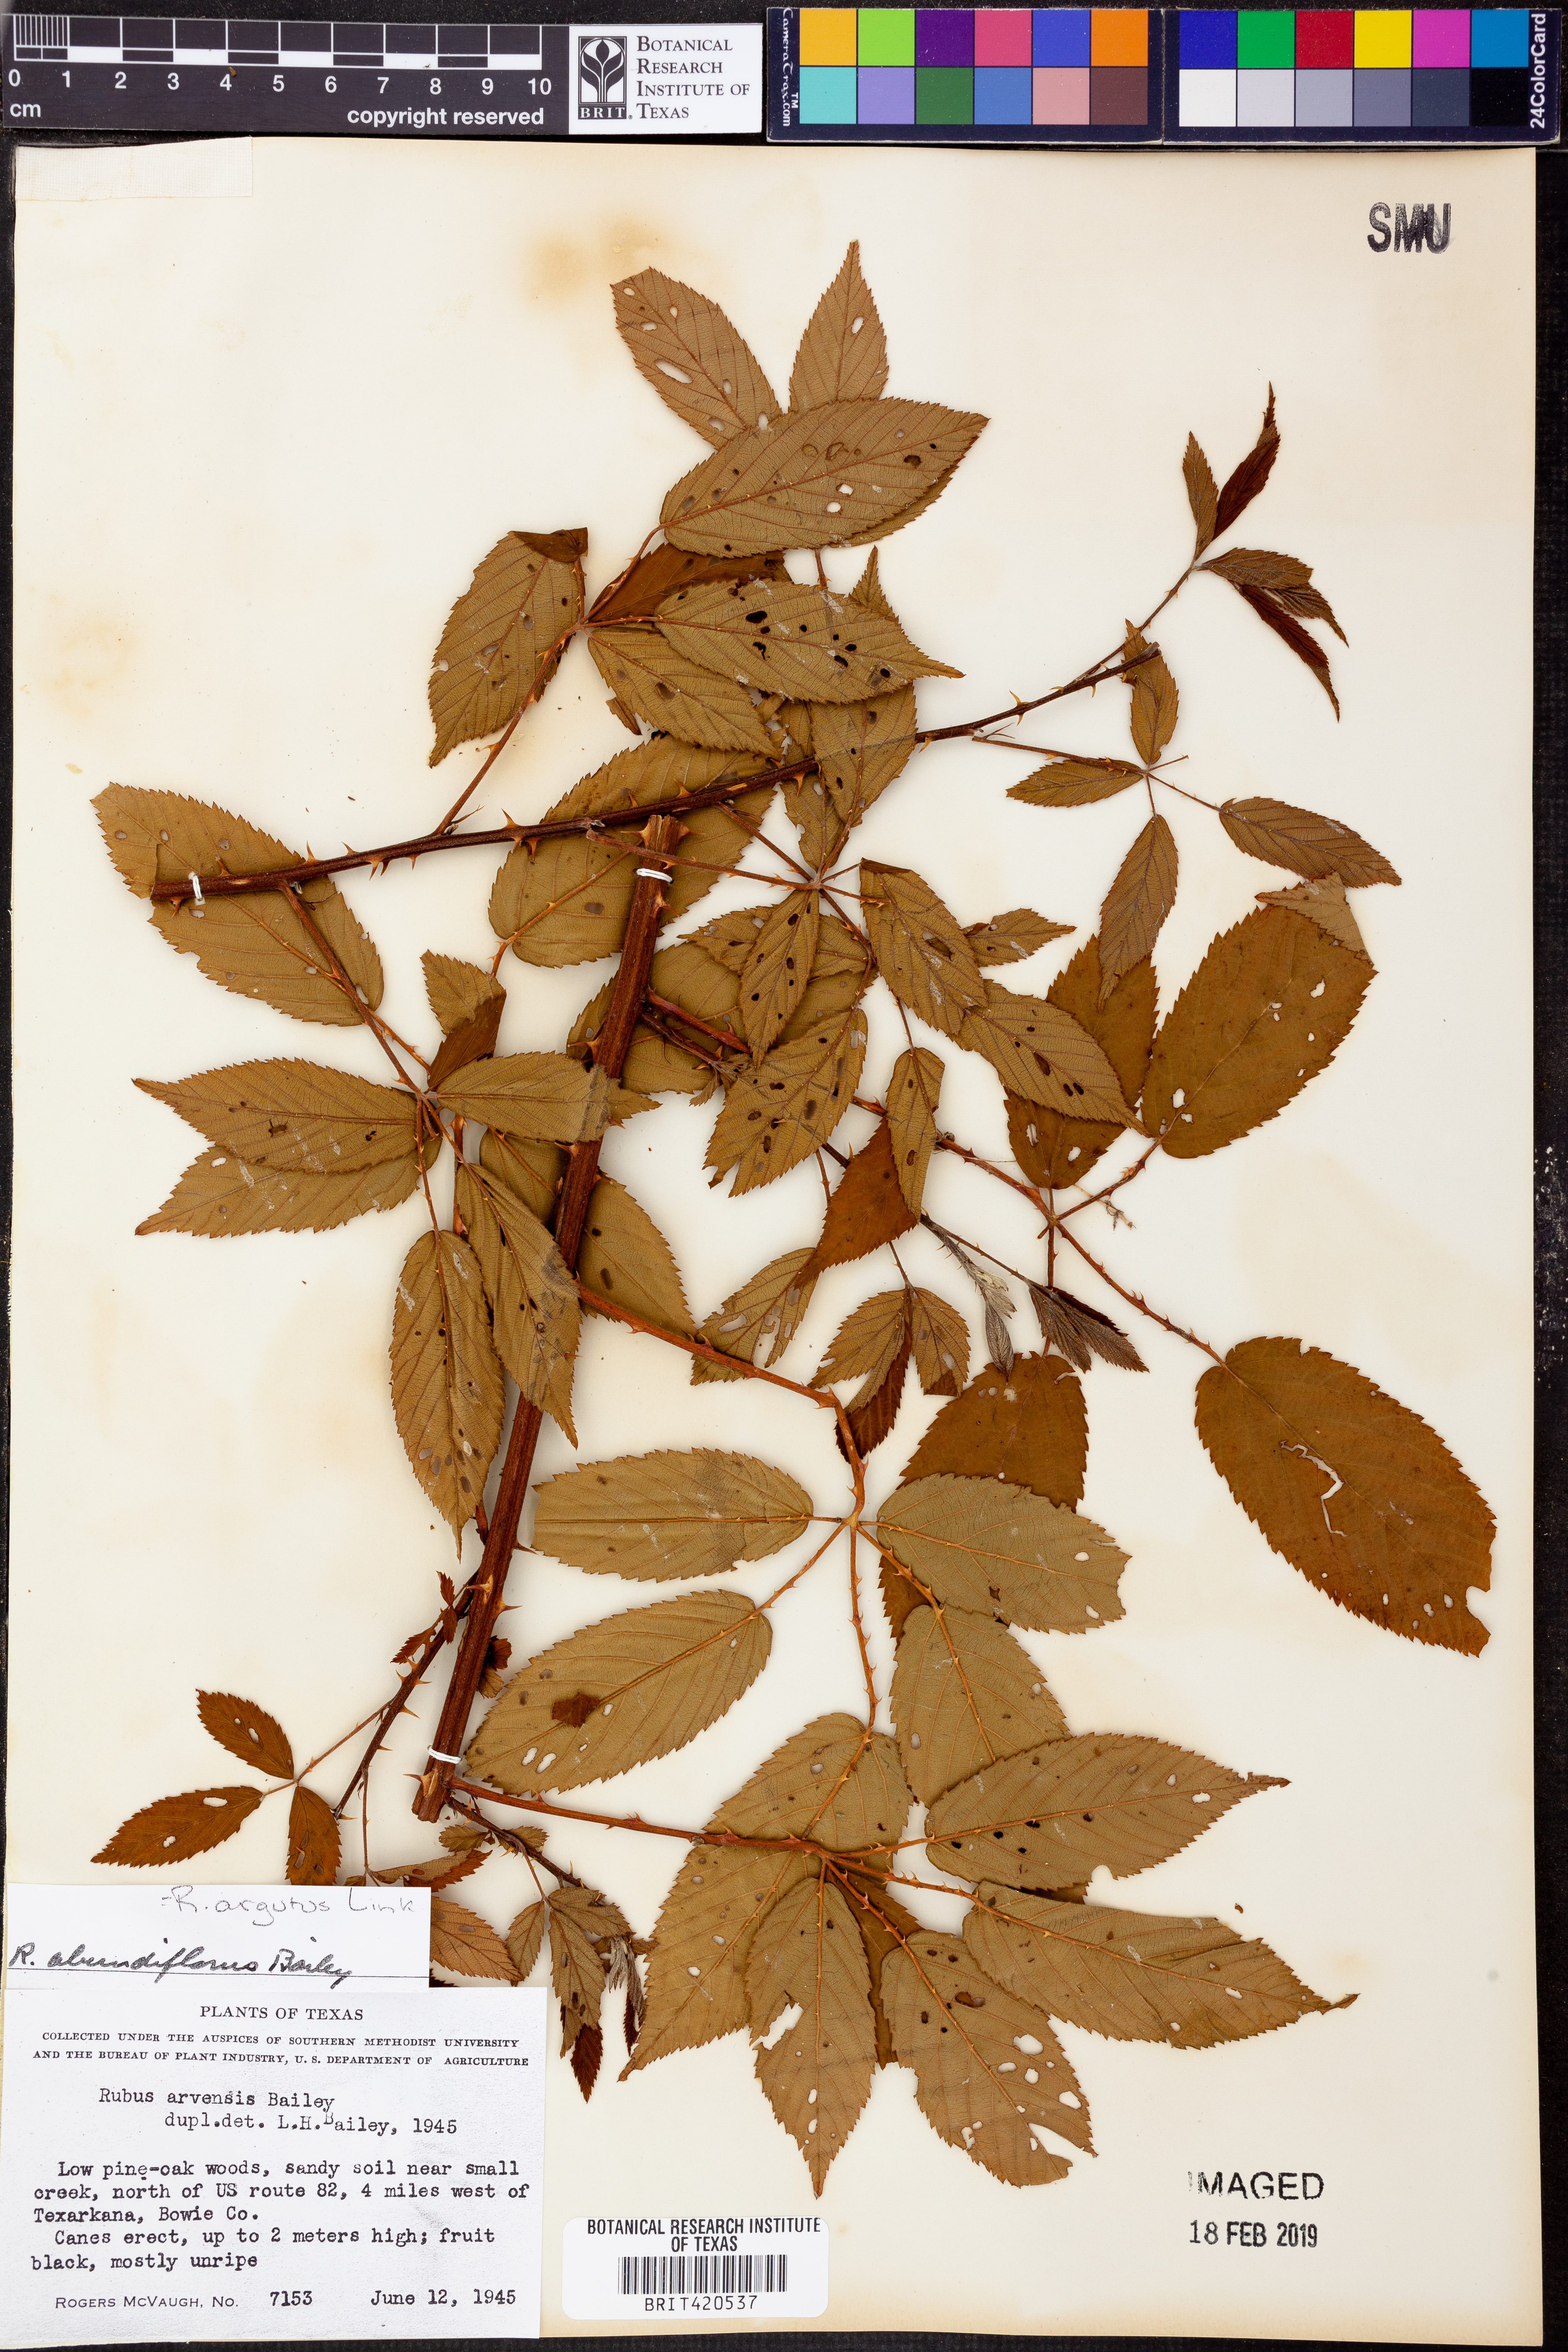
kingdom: Plantae
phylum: Tracheophyta
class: Magnoliopsida
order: Rosales
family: Rosaceae
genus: Rubus
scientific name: Rubus aboriginum
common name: Mayes dewberry
